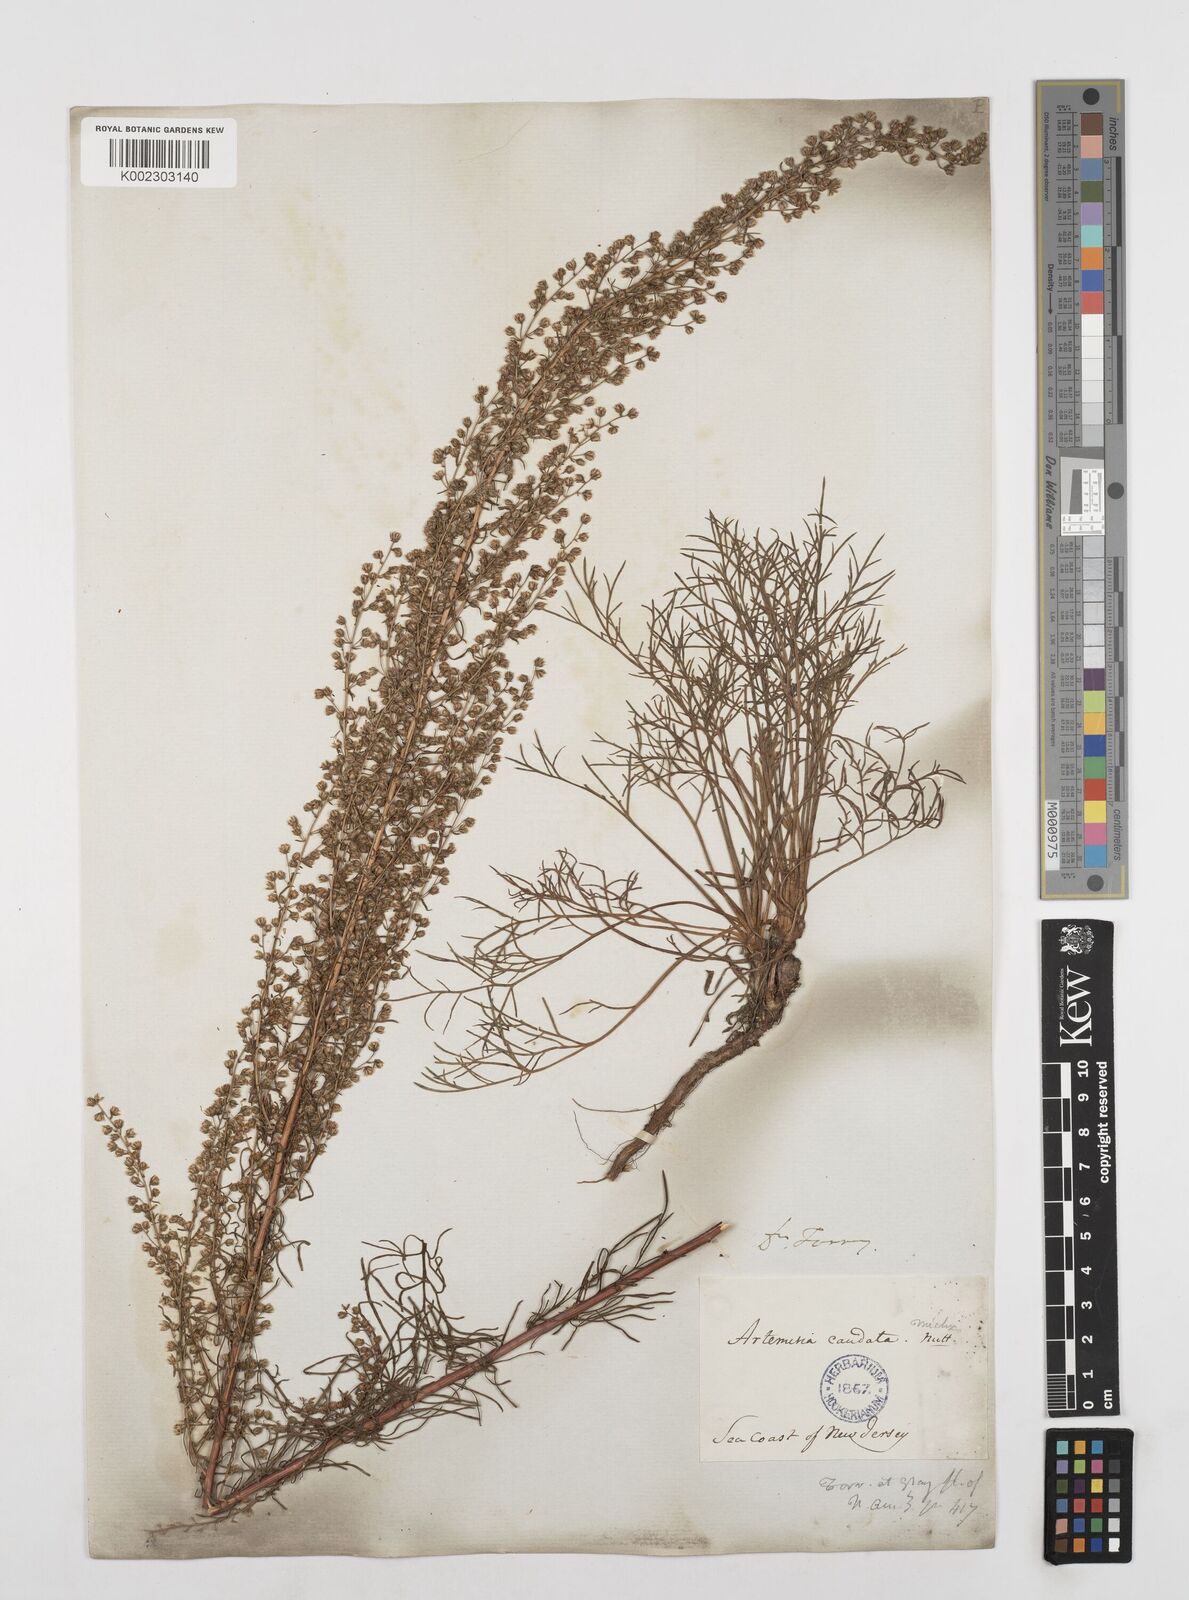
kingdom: Plantae
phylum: Tracheophyta
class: Magnoliopsida
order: Asterales
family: Asteraceae
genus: Artemisia
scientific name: Artemisia campestris
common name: Field wormwood
